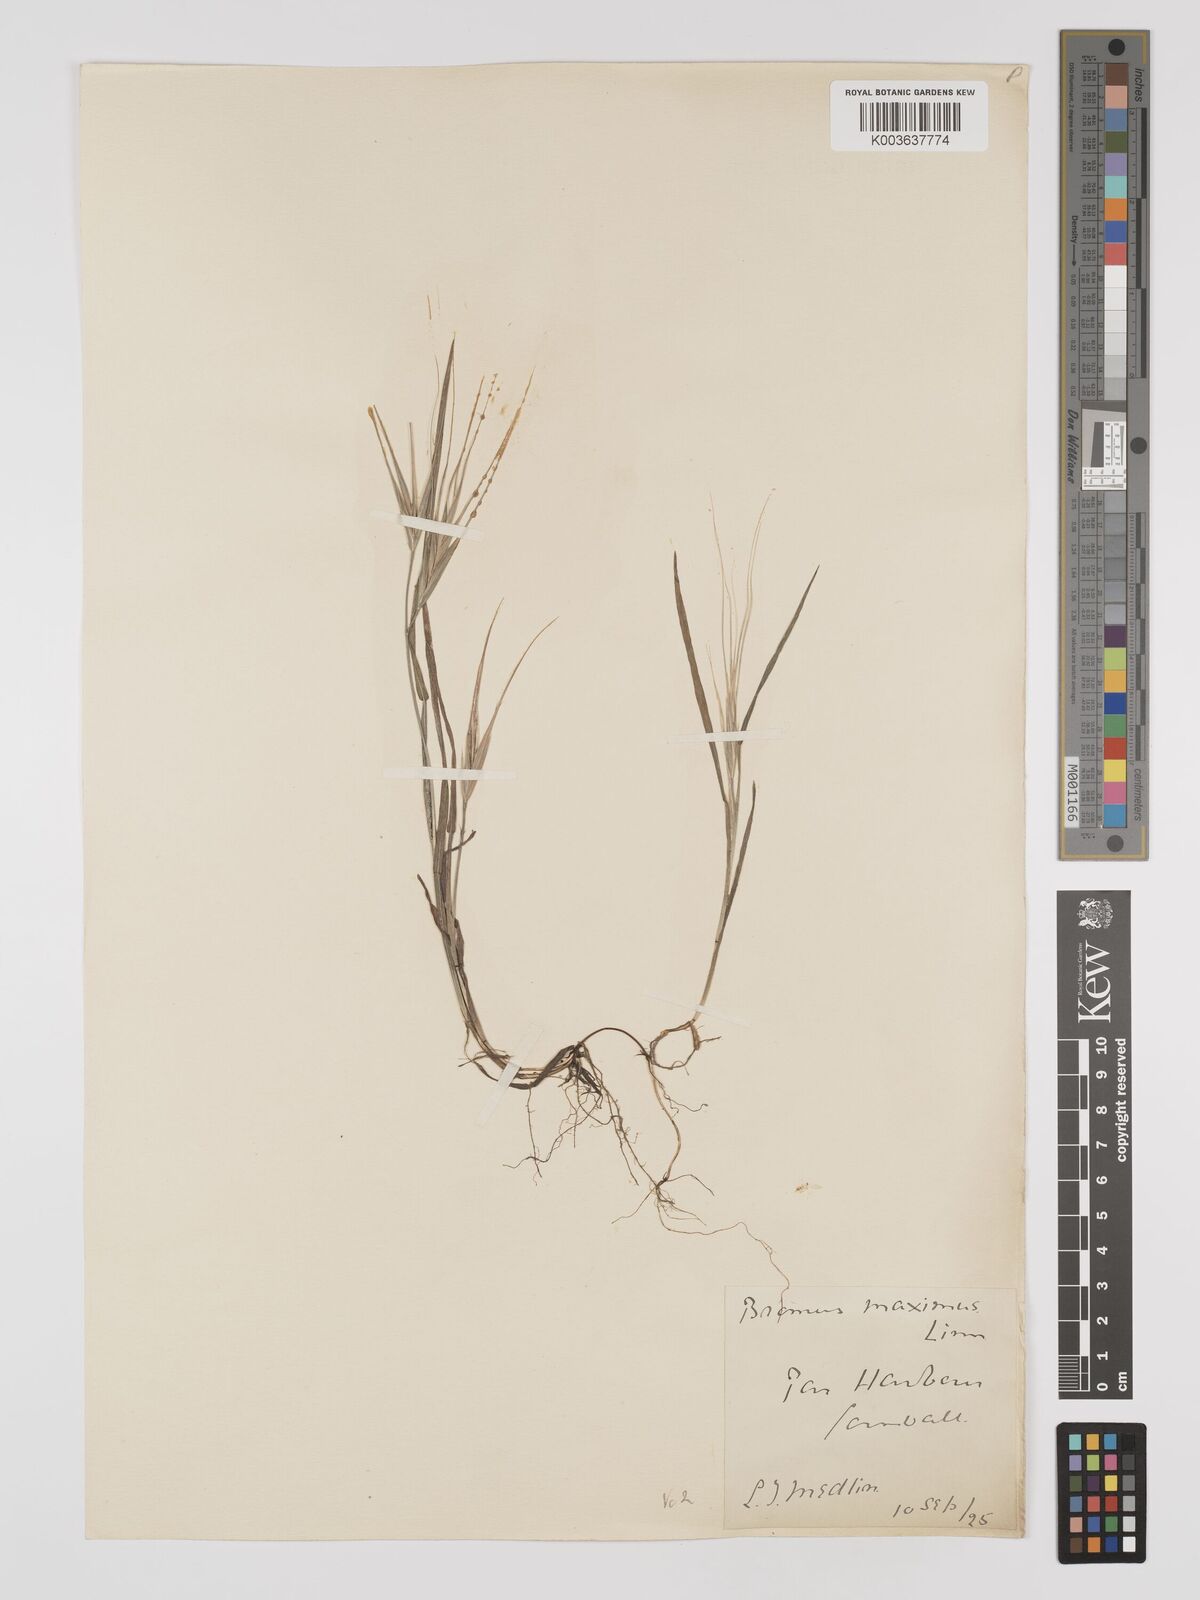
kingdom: Plantae
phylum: Tracheophyta
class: Liliopsida
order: Poales
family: Poaceae
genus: Bromus
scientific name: Bromus
